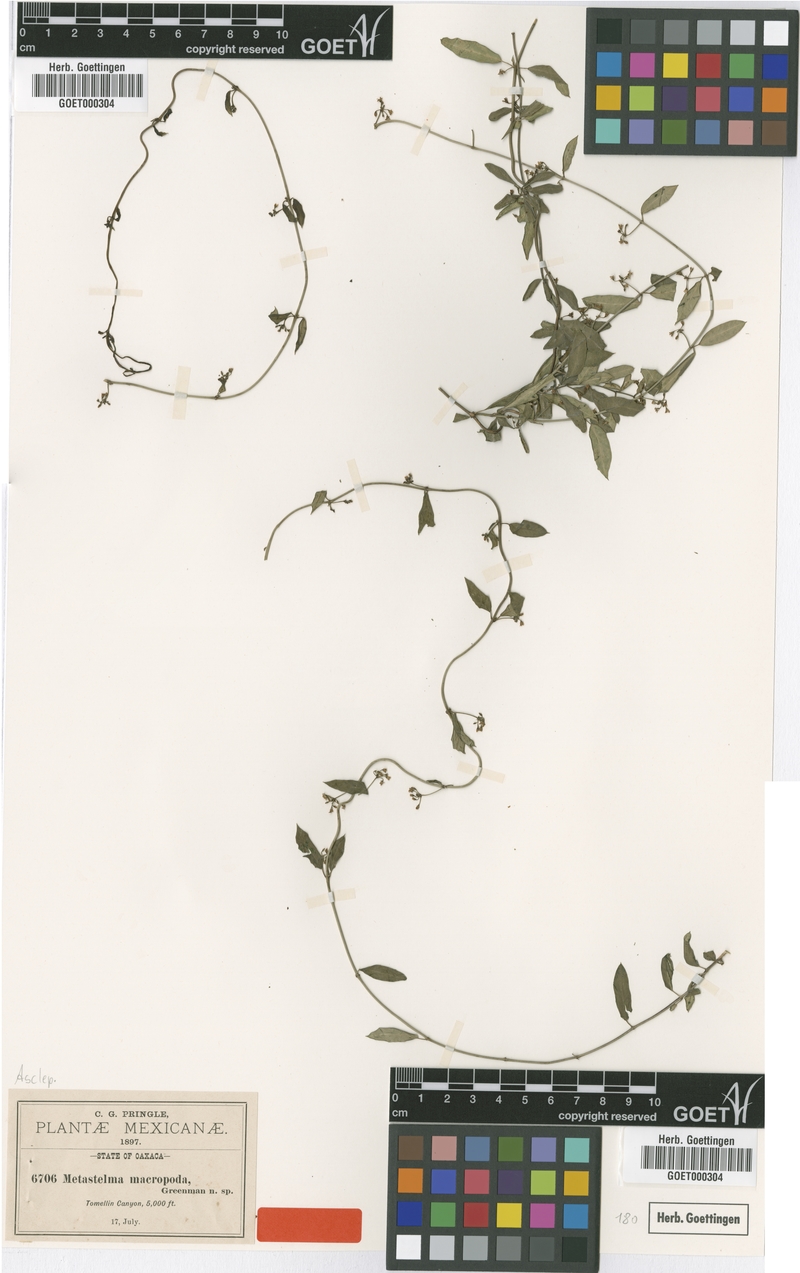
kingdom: Plantae
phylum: Tracheophyta
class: Magnoliopsida
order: Gentianales
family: Apocynaceae
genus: Metastelma
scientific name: Metastelma palmeri
